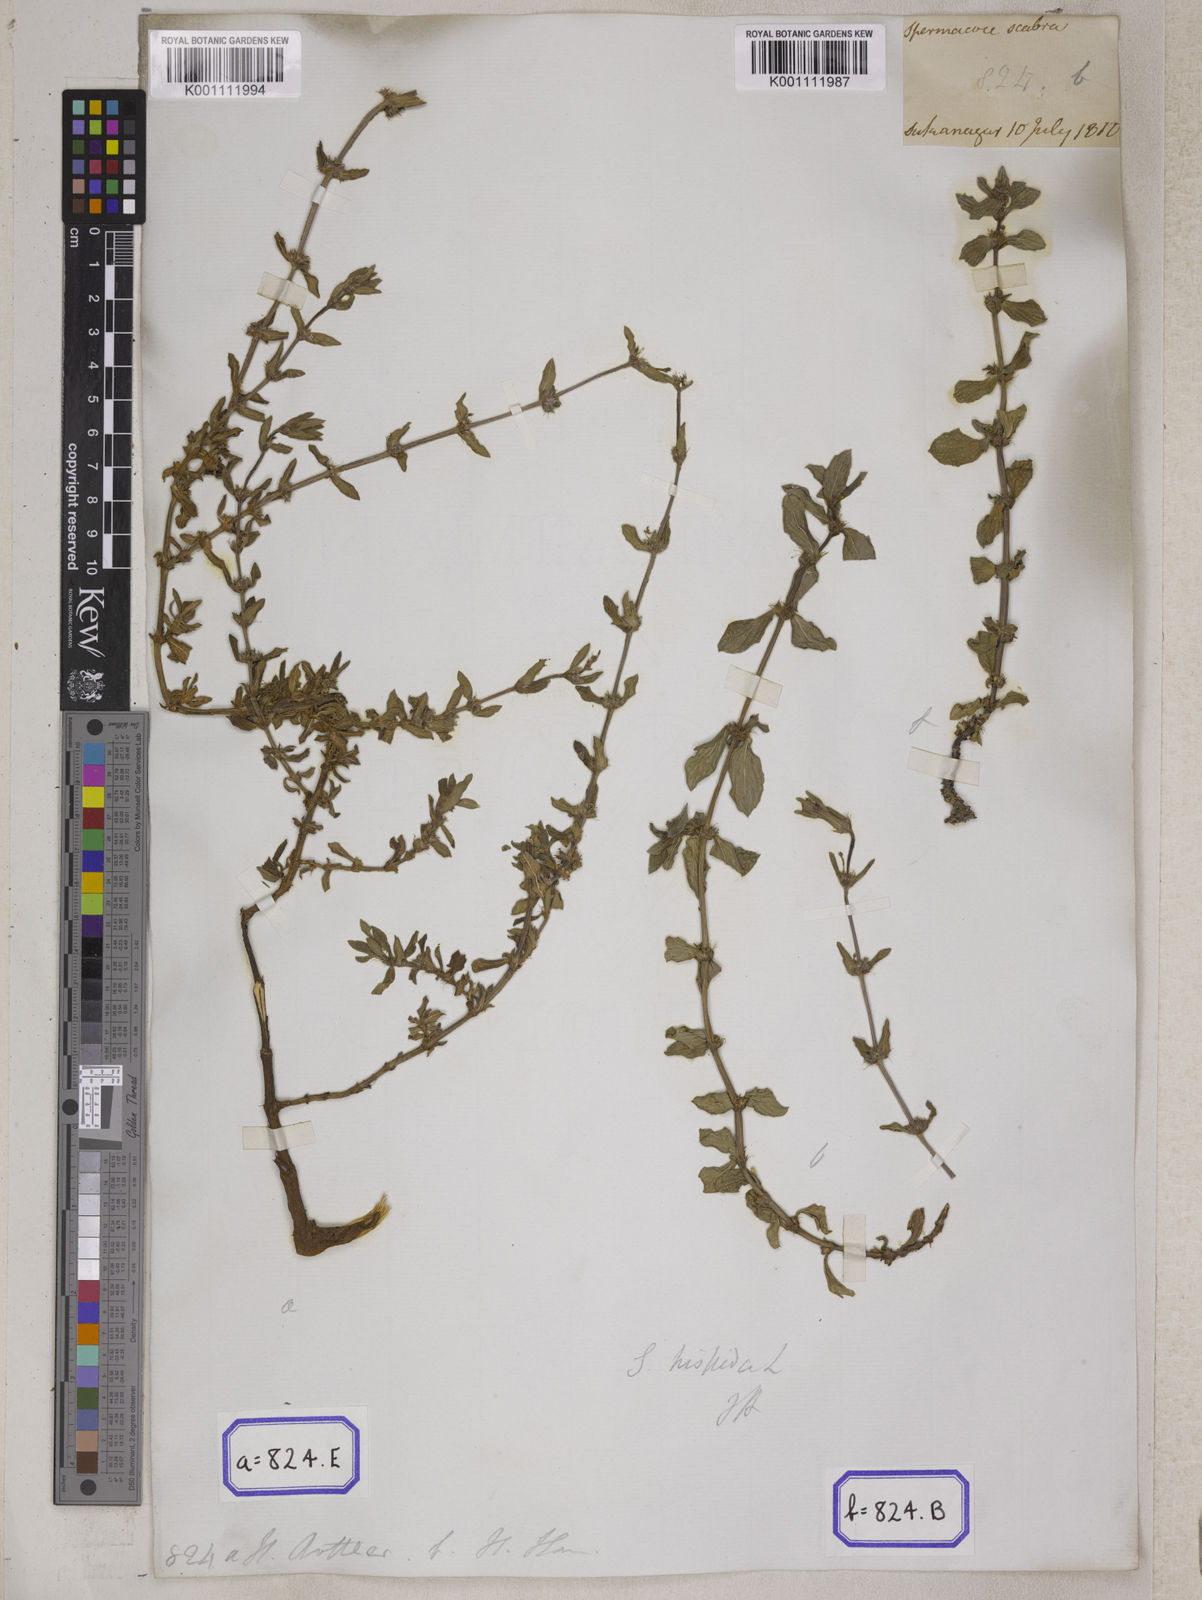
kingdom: Plantae
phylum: Tracheophyta
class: Magnoliopsida
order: Gentianales
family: Rubiaceae
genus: Spermacoce
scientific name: Spermacoce
